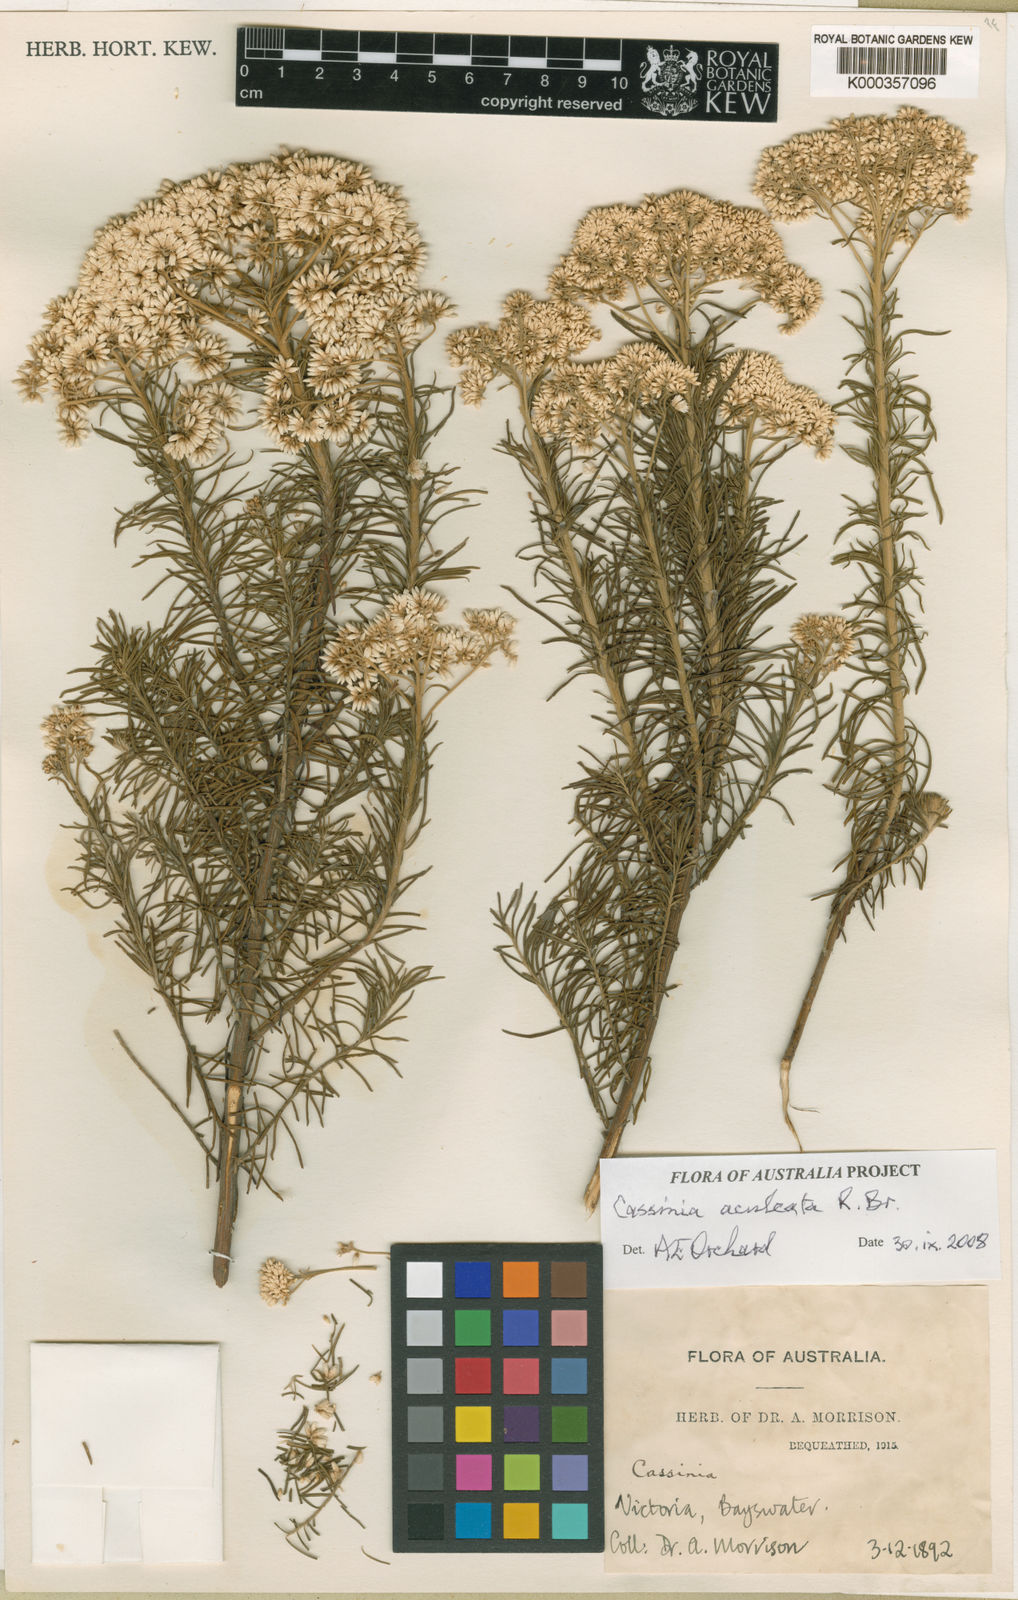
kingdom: Plantae
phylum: Tracheophyta
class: Magnoliopsida
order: Asterales
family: Asteraceae
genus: Cassinia
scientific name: Cassinia aculeata
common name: Australian tauhinu
